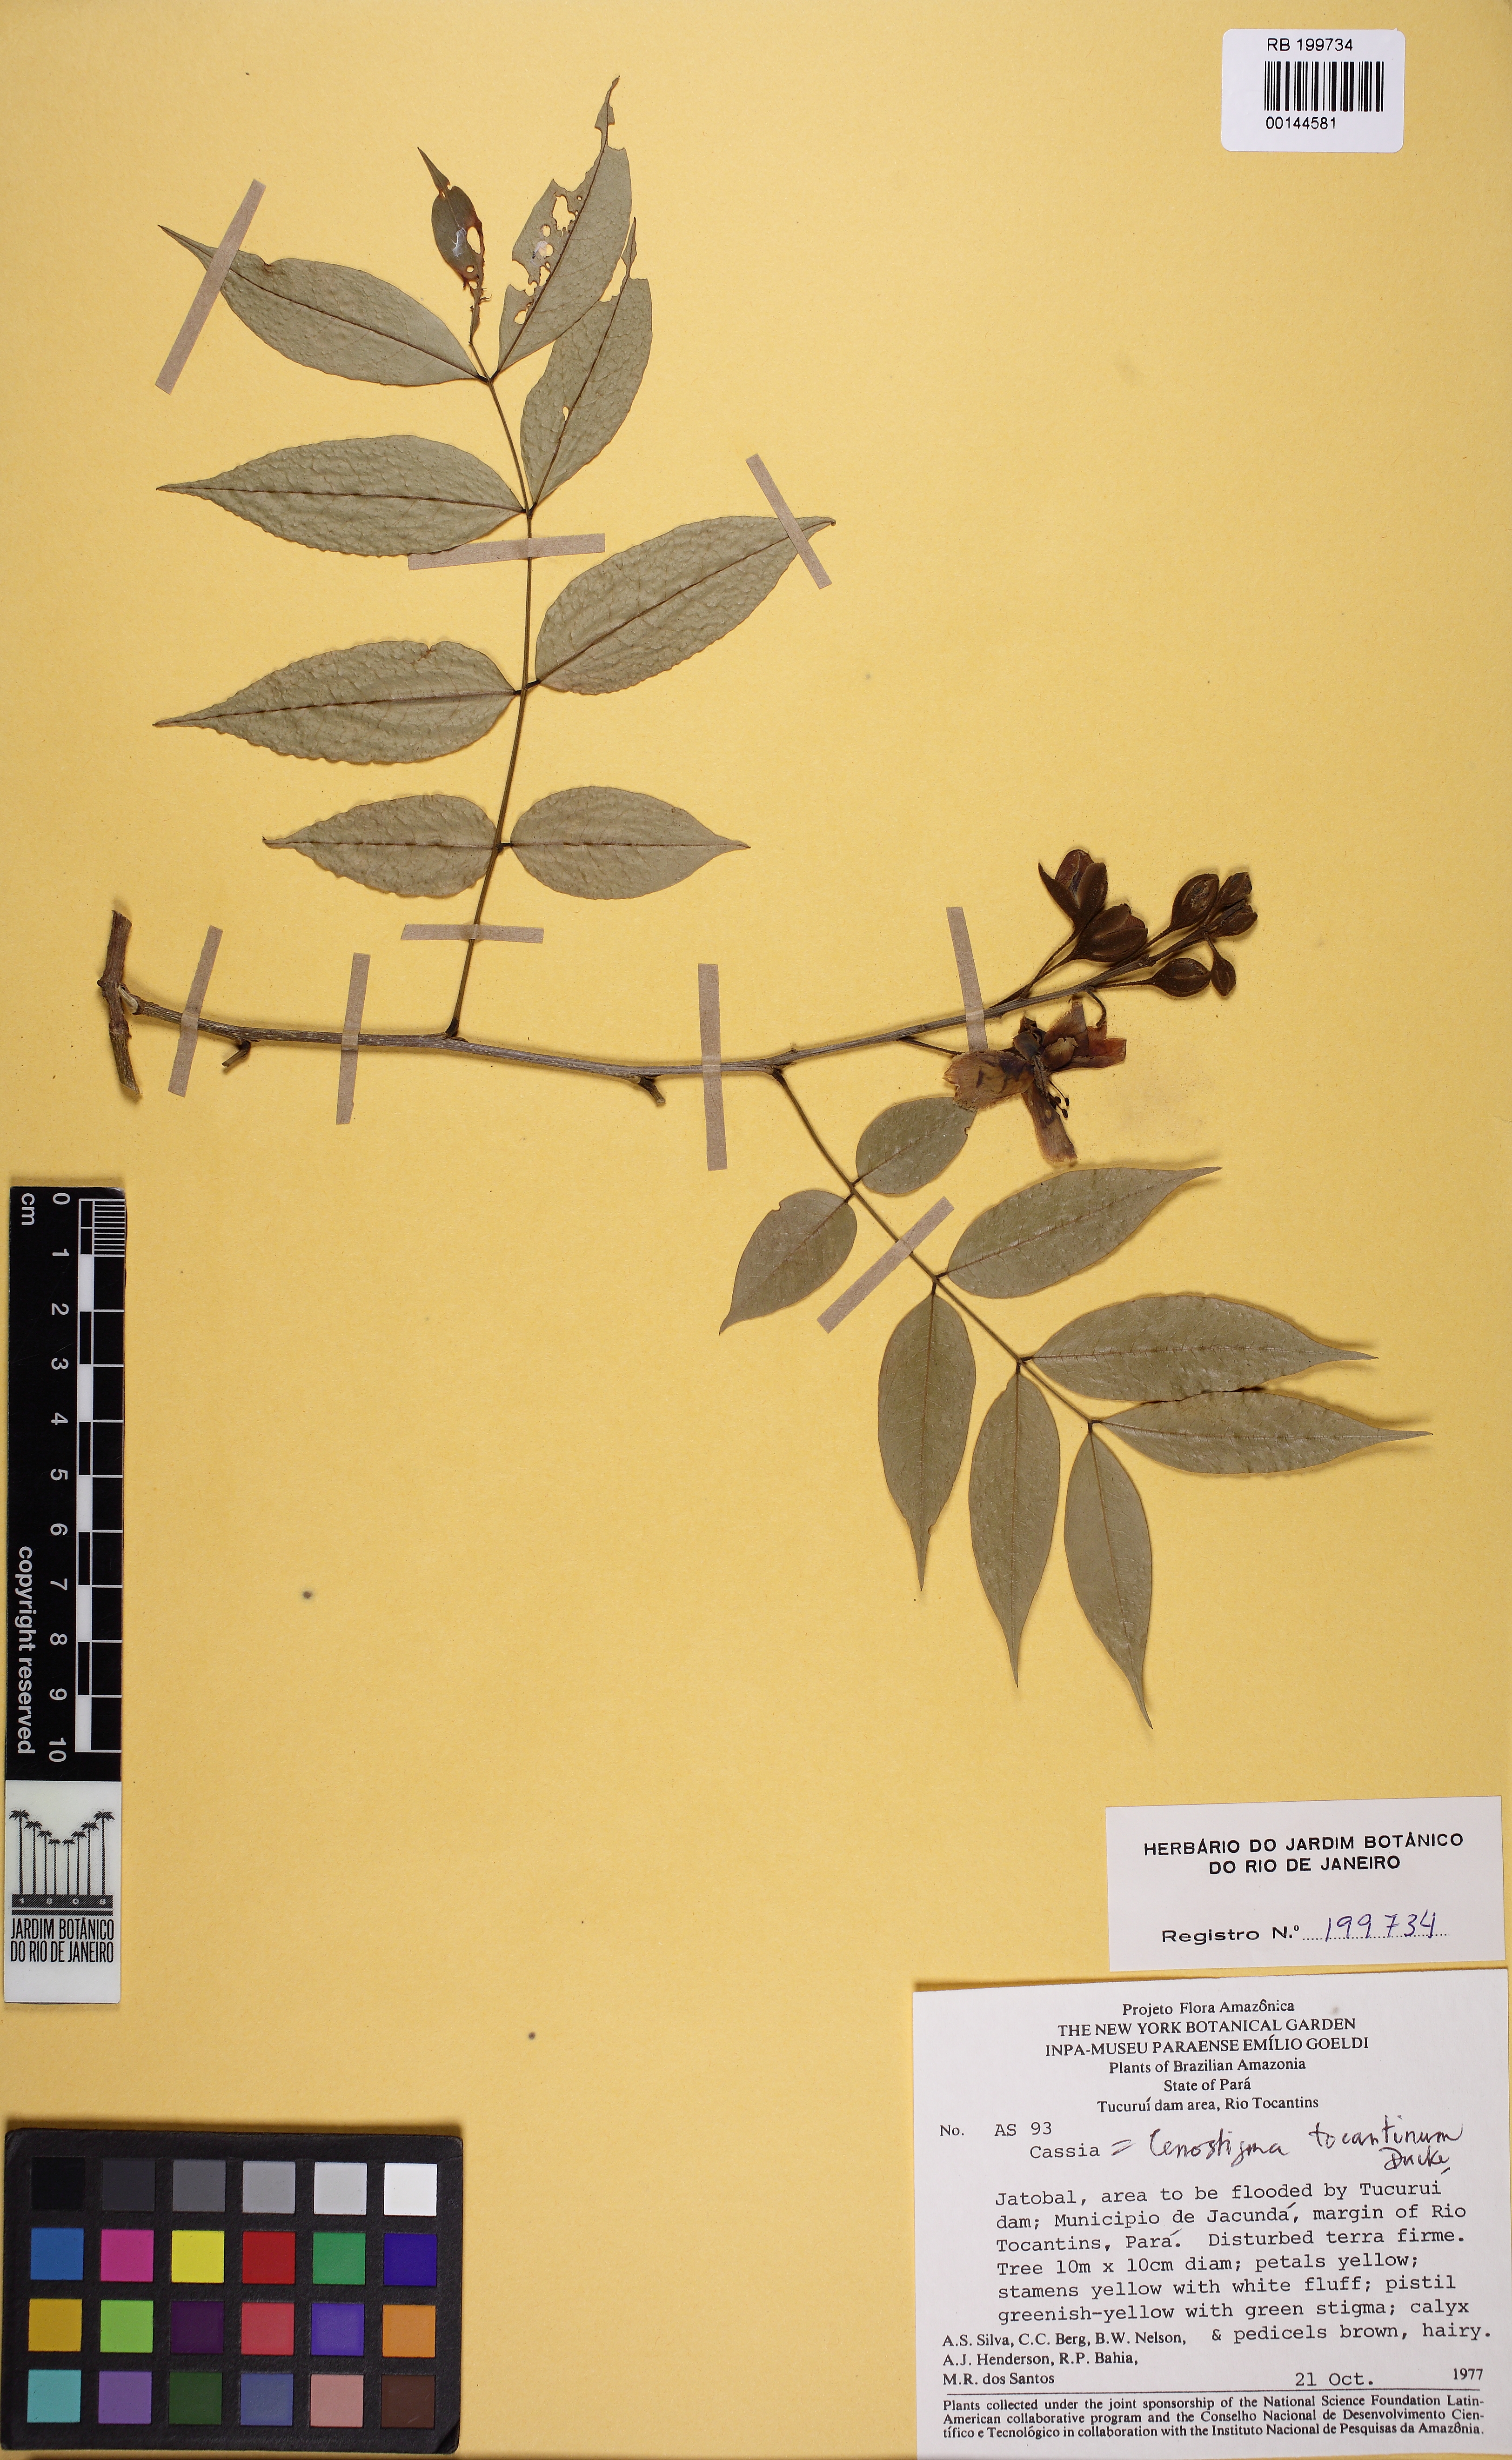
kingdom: Plantae
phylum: Tracheophyta
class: Magnoliopsida
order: Fabales
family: Fabaceae
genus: Cenostigma
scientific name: Cenostigma tocantinum
